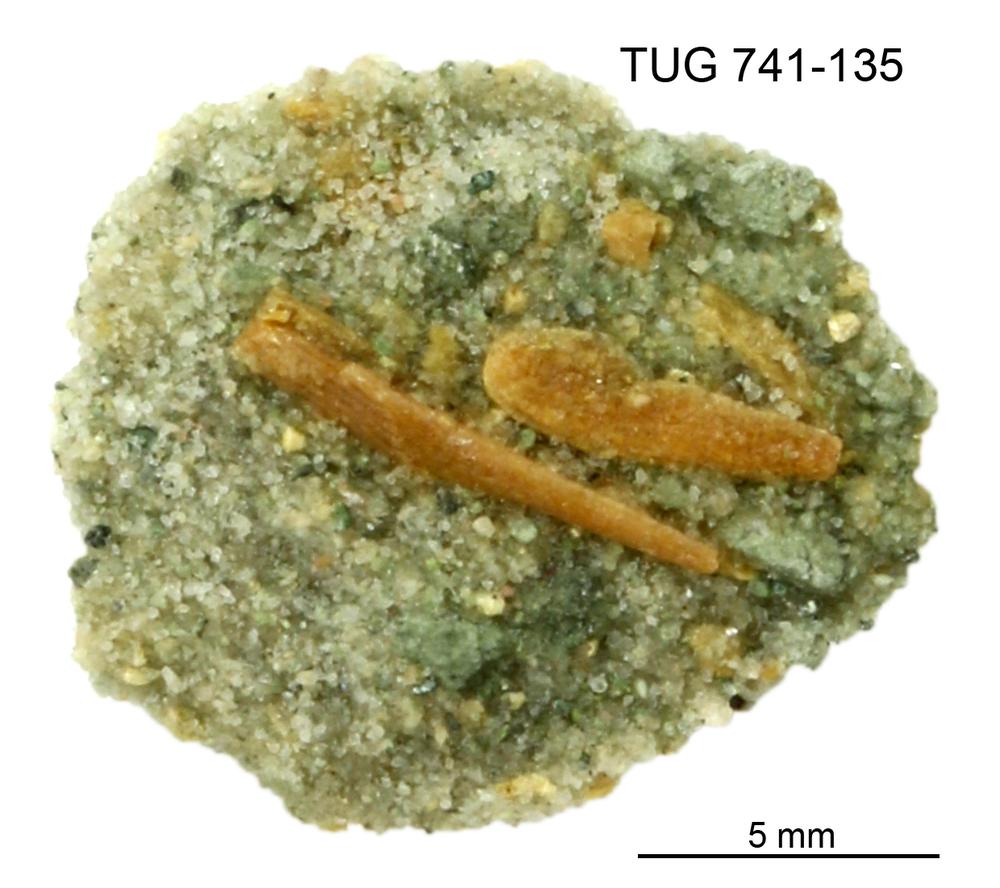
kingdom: Animalia
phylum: Chordata
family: Acanthodidae
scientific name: Acanthodidae
